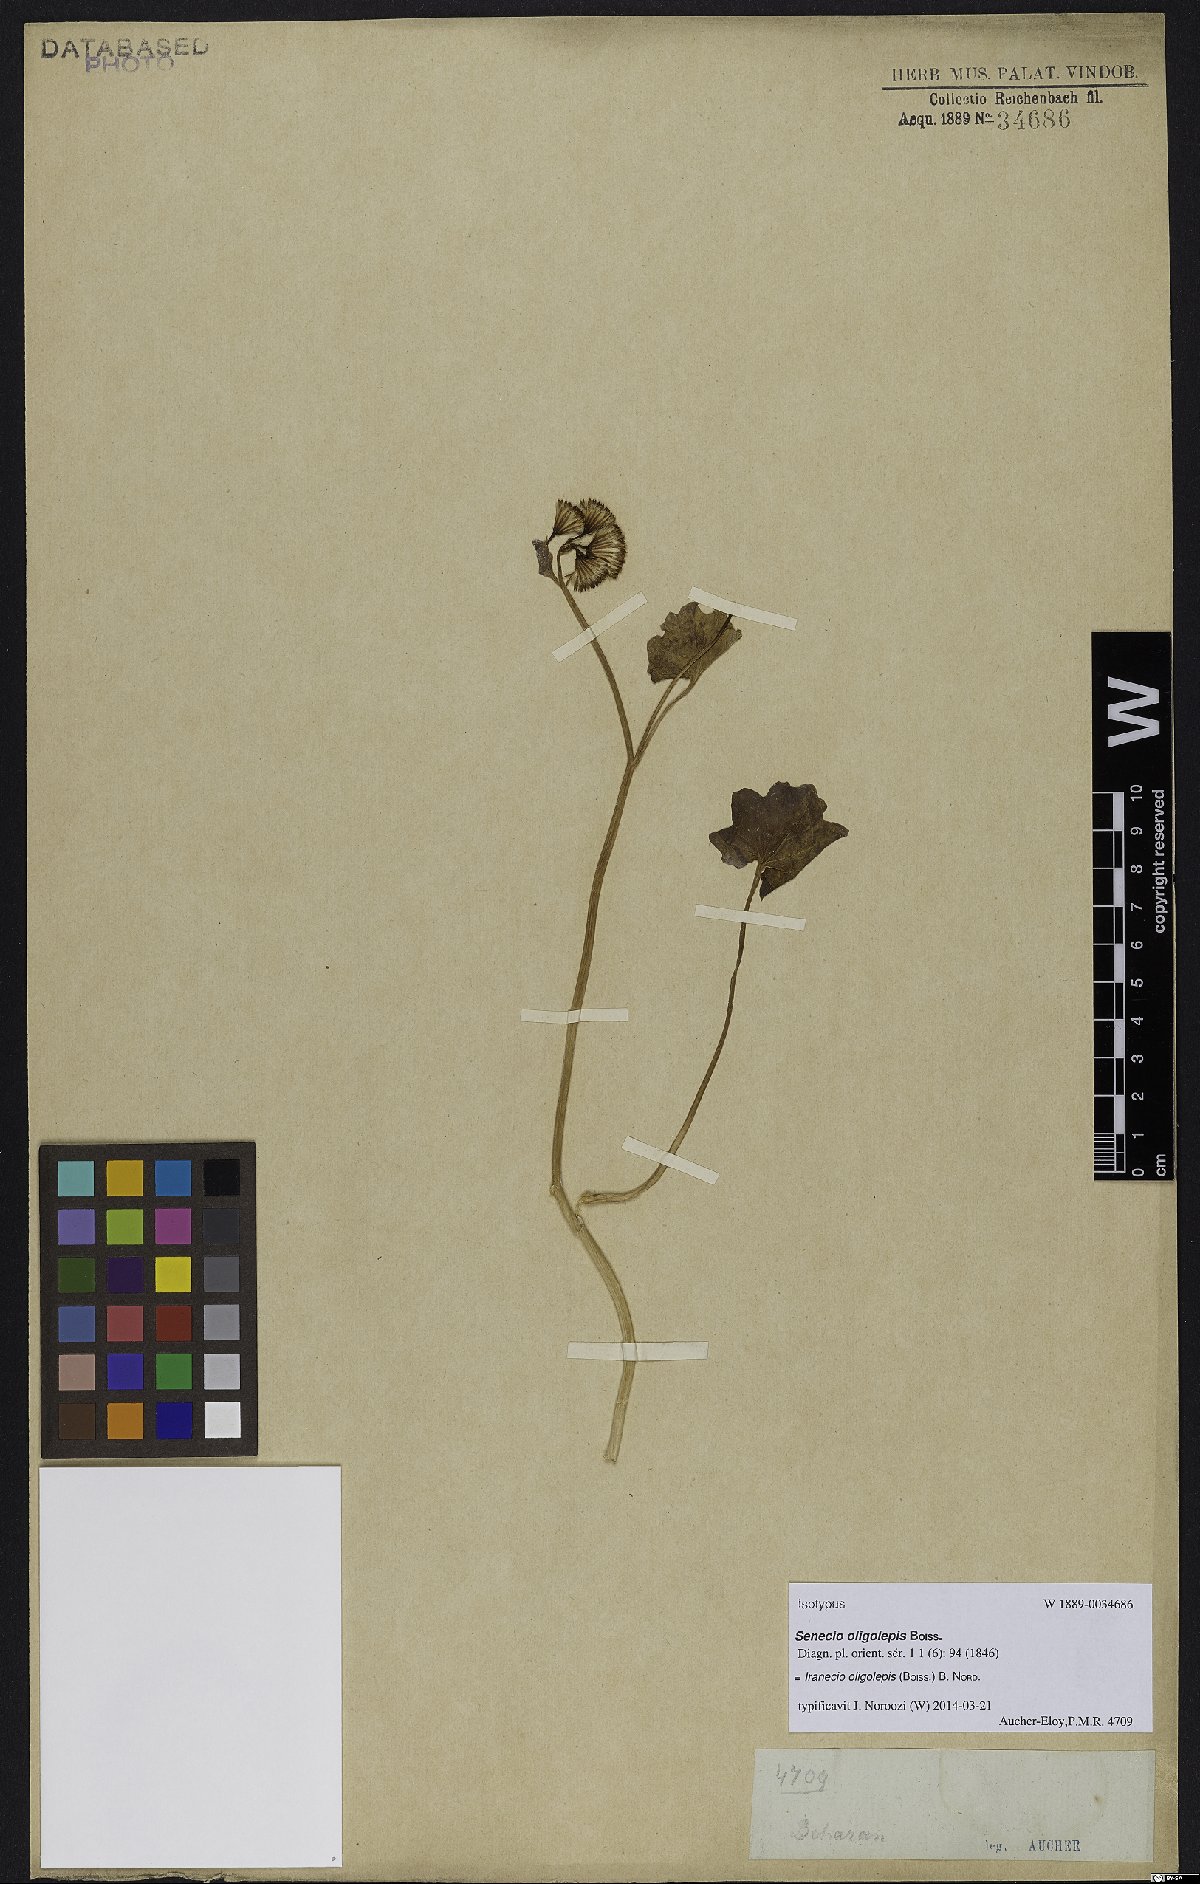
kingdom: Plantae
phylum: Tracheophyta
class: Magnoliopsida
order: Asterales
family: Asteraceae
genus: Iranecio
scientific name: Iranecio oligolepis
